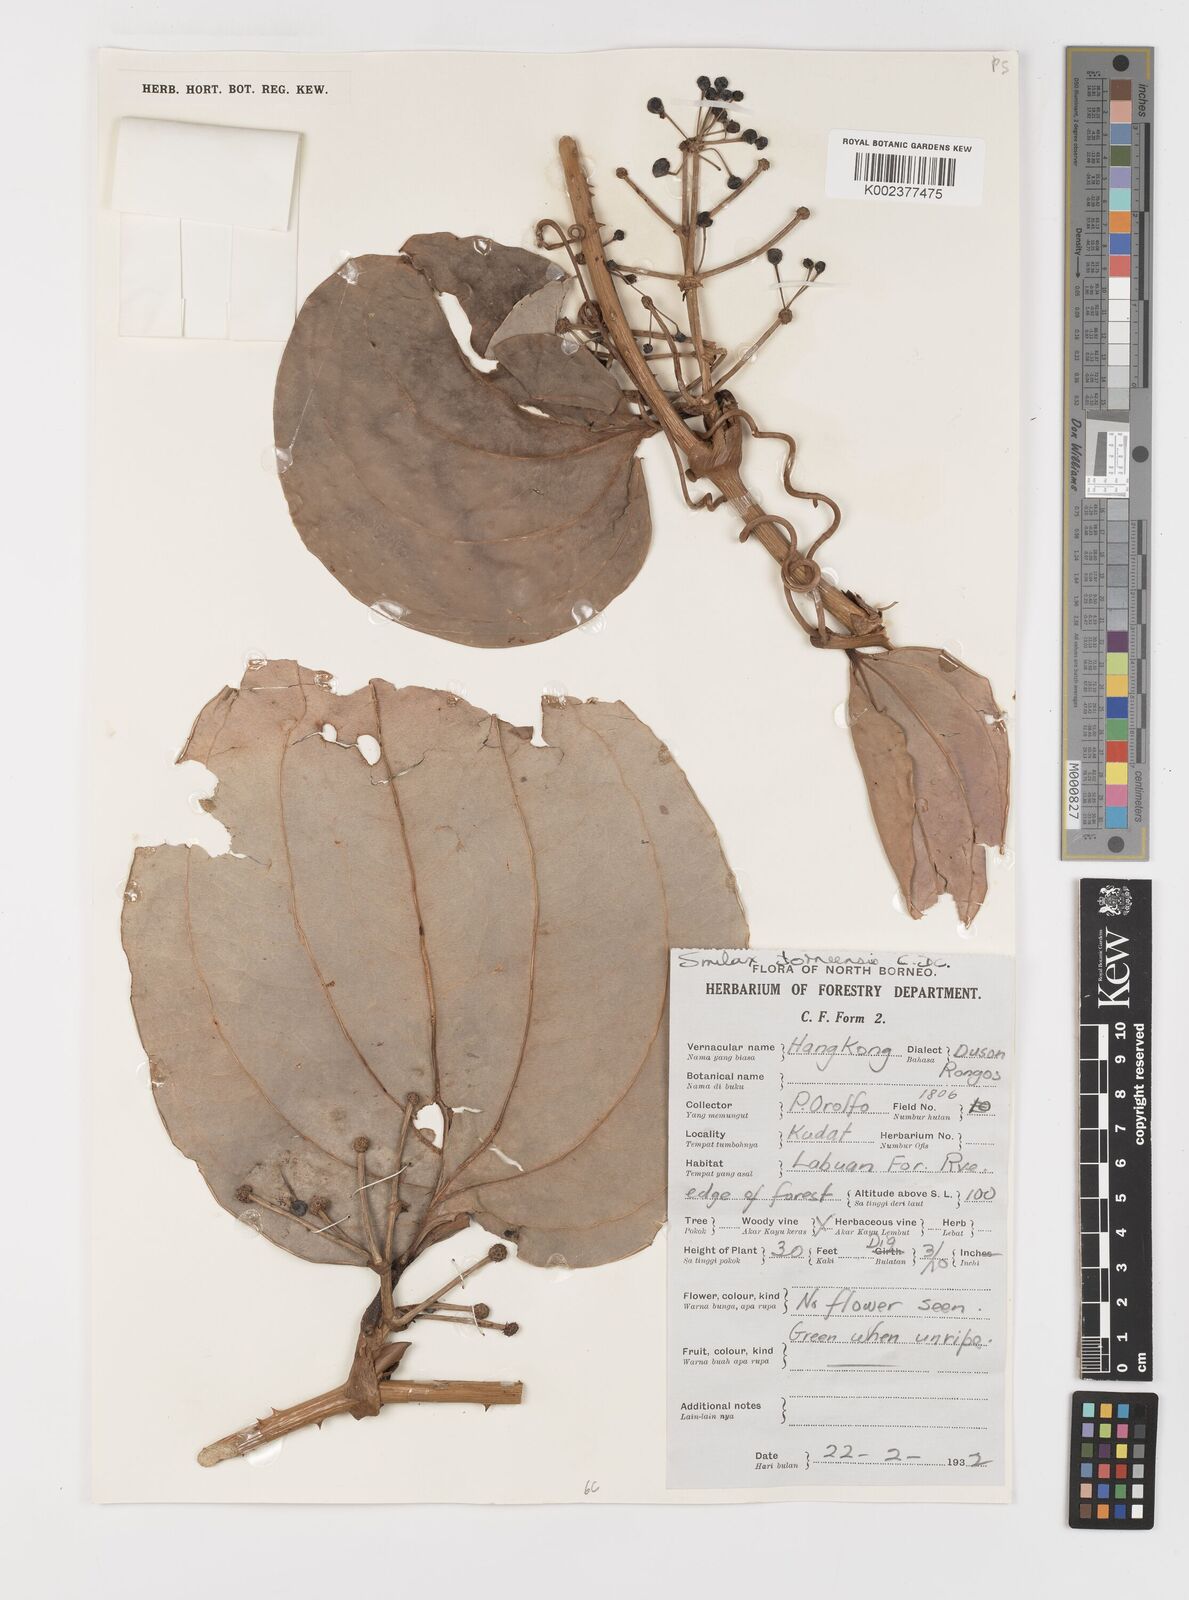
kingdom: Plantae
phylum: Tracheophyta
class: Liliopsida
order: Liliales
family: Smilacaceae
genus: Smilax
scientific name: Smilax borneensis
